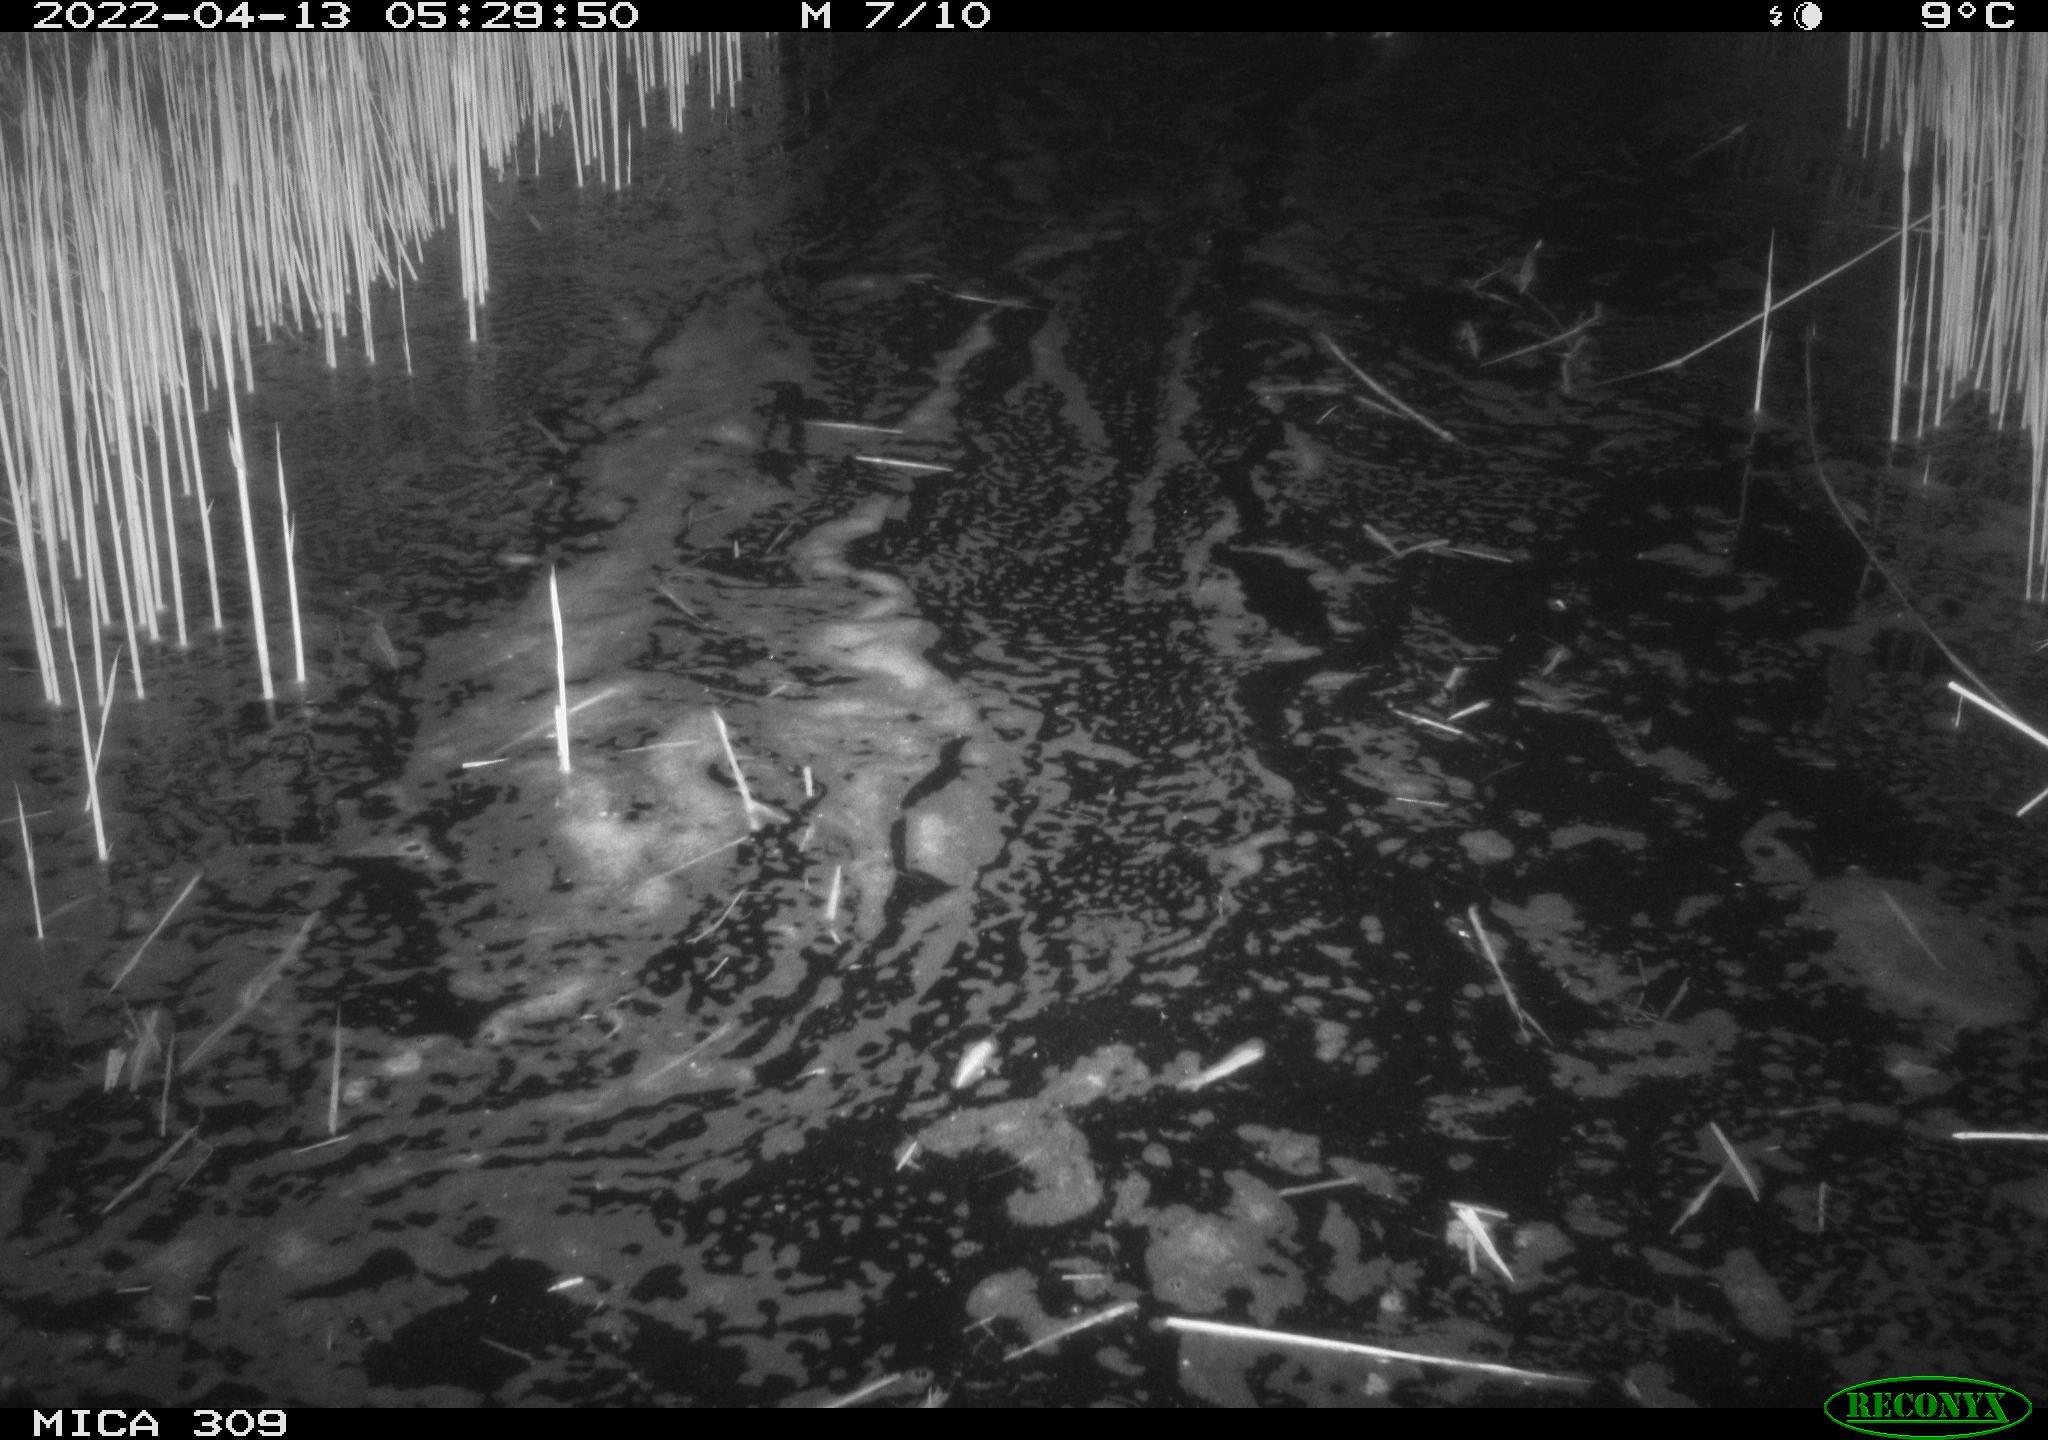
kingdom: Animalia
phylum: Chordata
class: Aves
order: Anseriformes
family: Anatidae
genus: Anas
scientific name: Anas platyrhynchos
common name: Mallard
